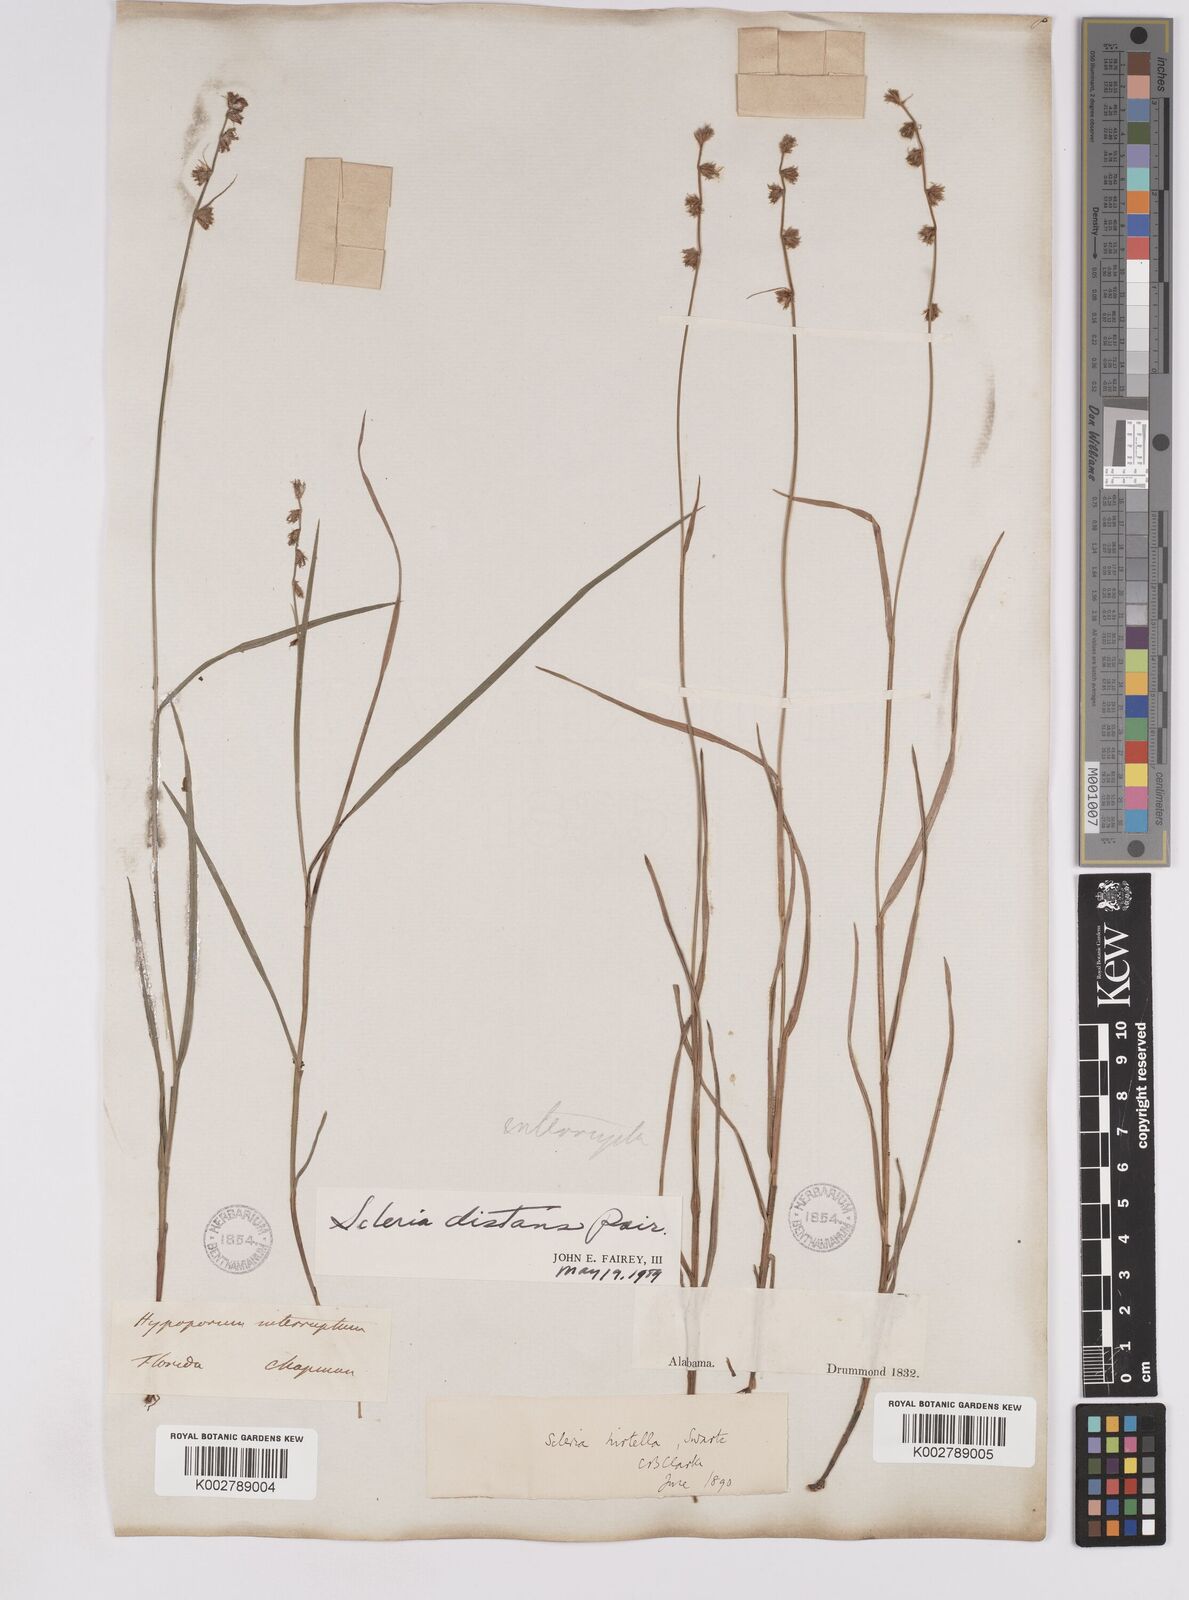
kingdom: Plantae
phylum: Tracheophyta
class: Liliopsida
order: Poales
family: Cyperaceae
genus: Scleria
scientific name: Scleria distans
